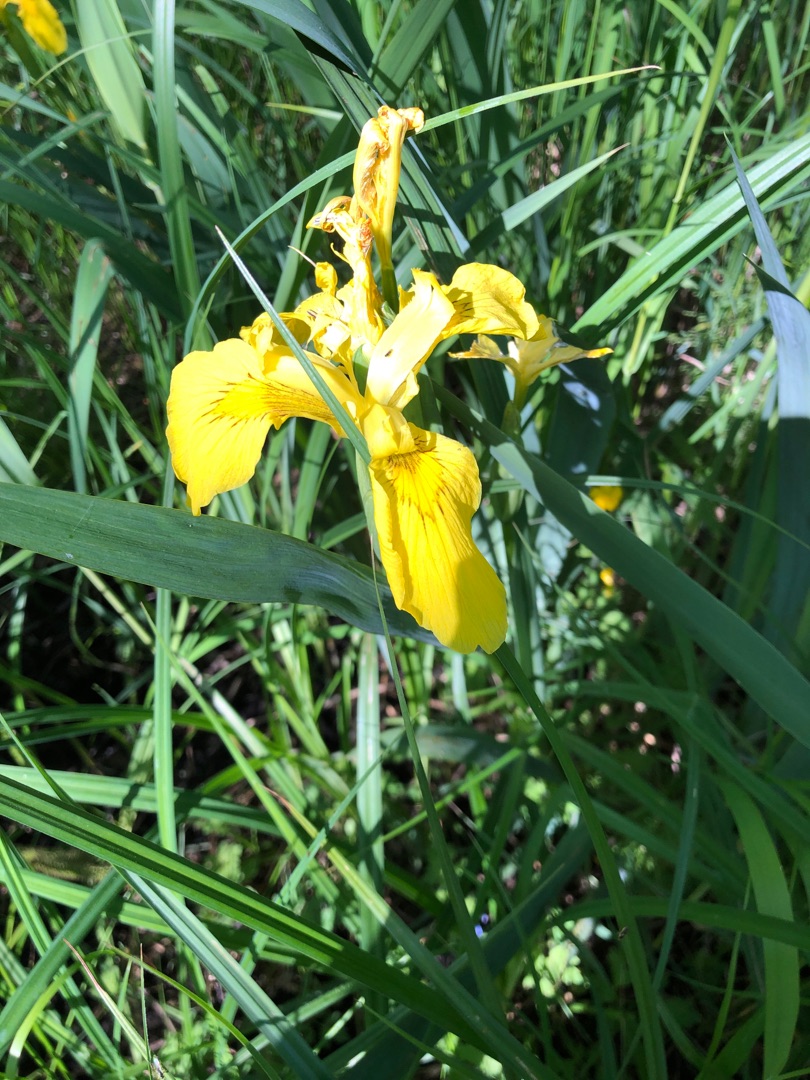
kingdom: Plantae
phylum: Tracheophyta
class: Liliopsida
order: Asparagales
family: Iridaceae
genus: Iris
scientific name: Iris pseudacorus
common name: Gul iris
